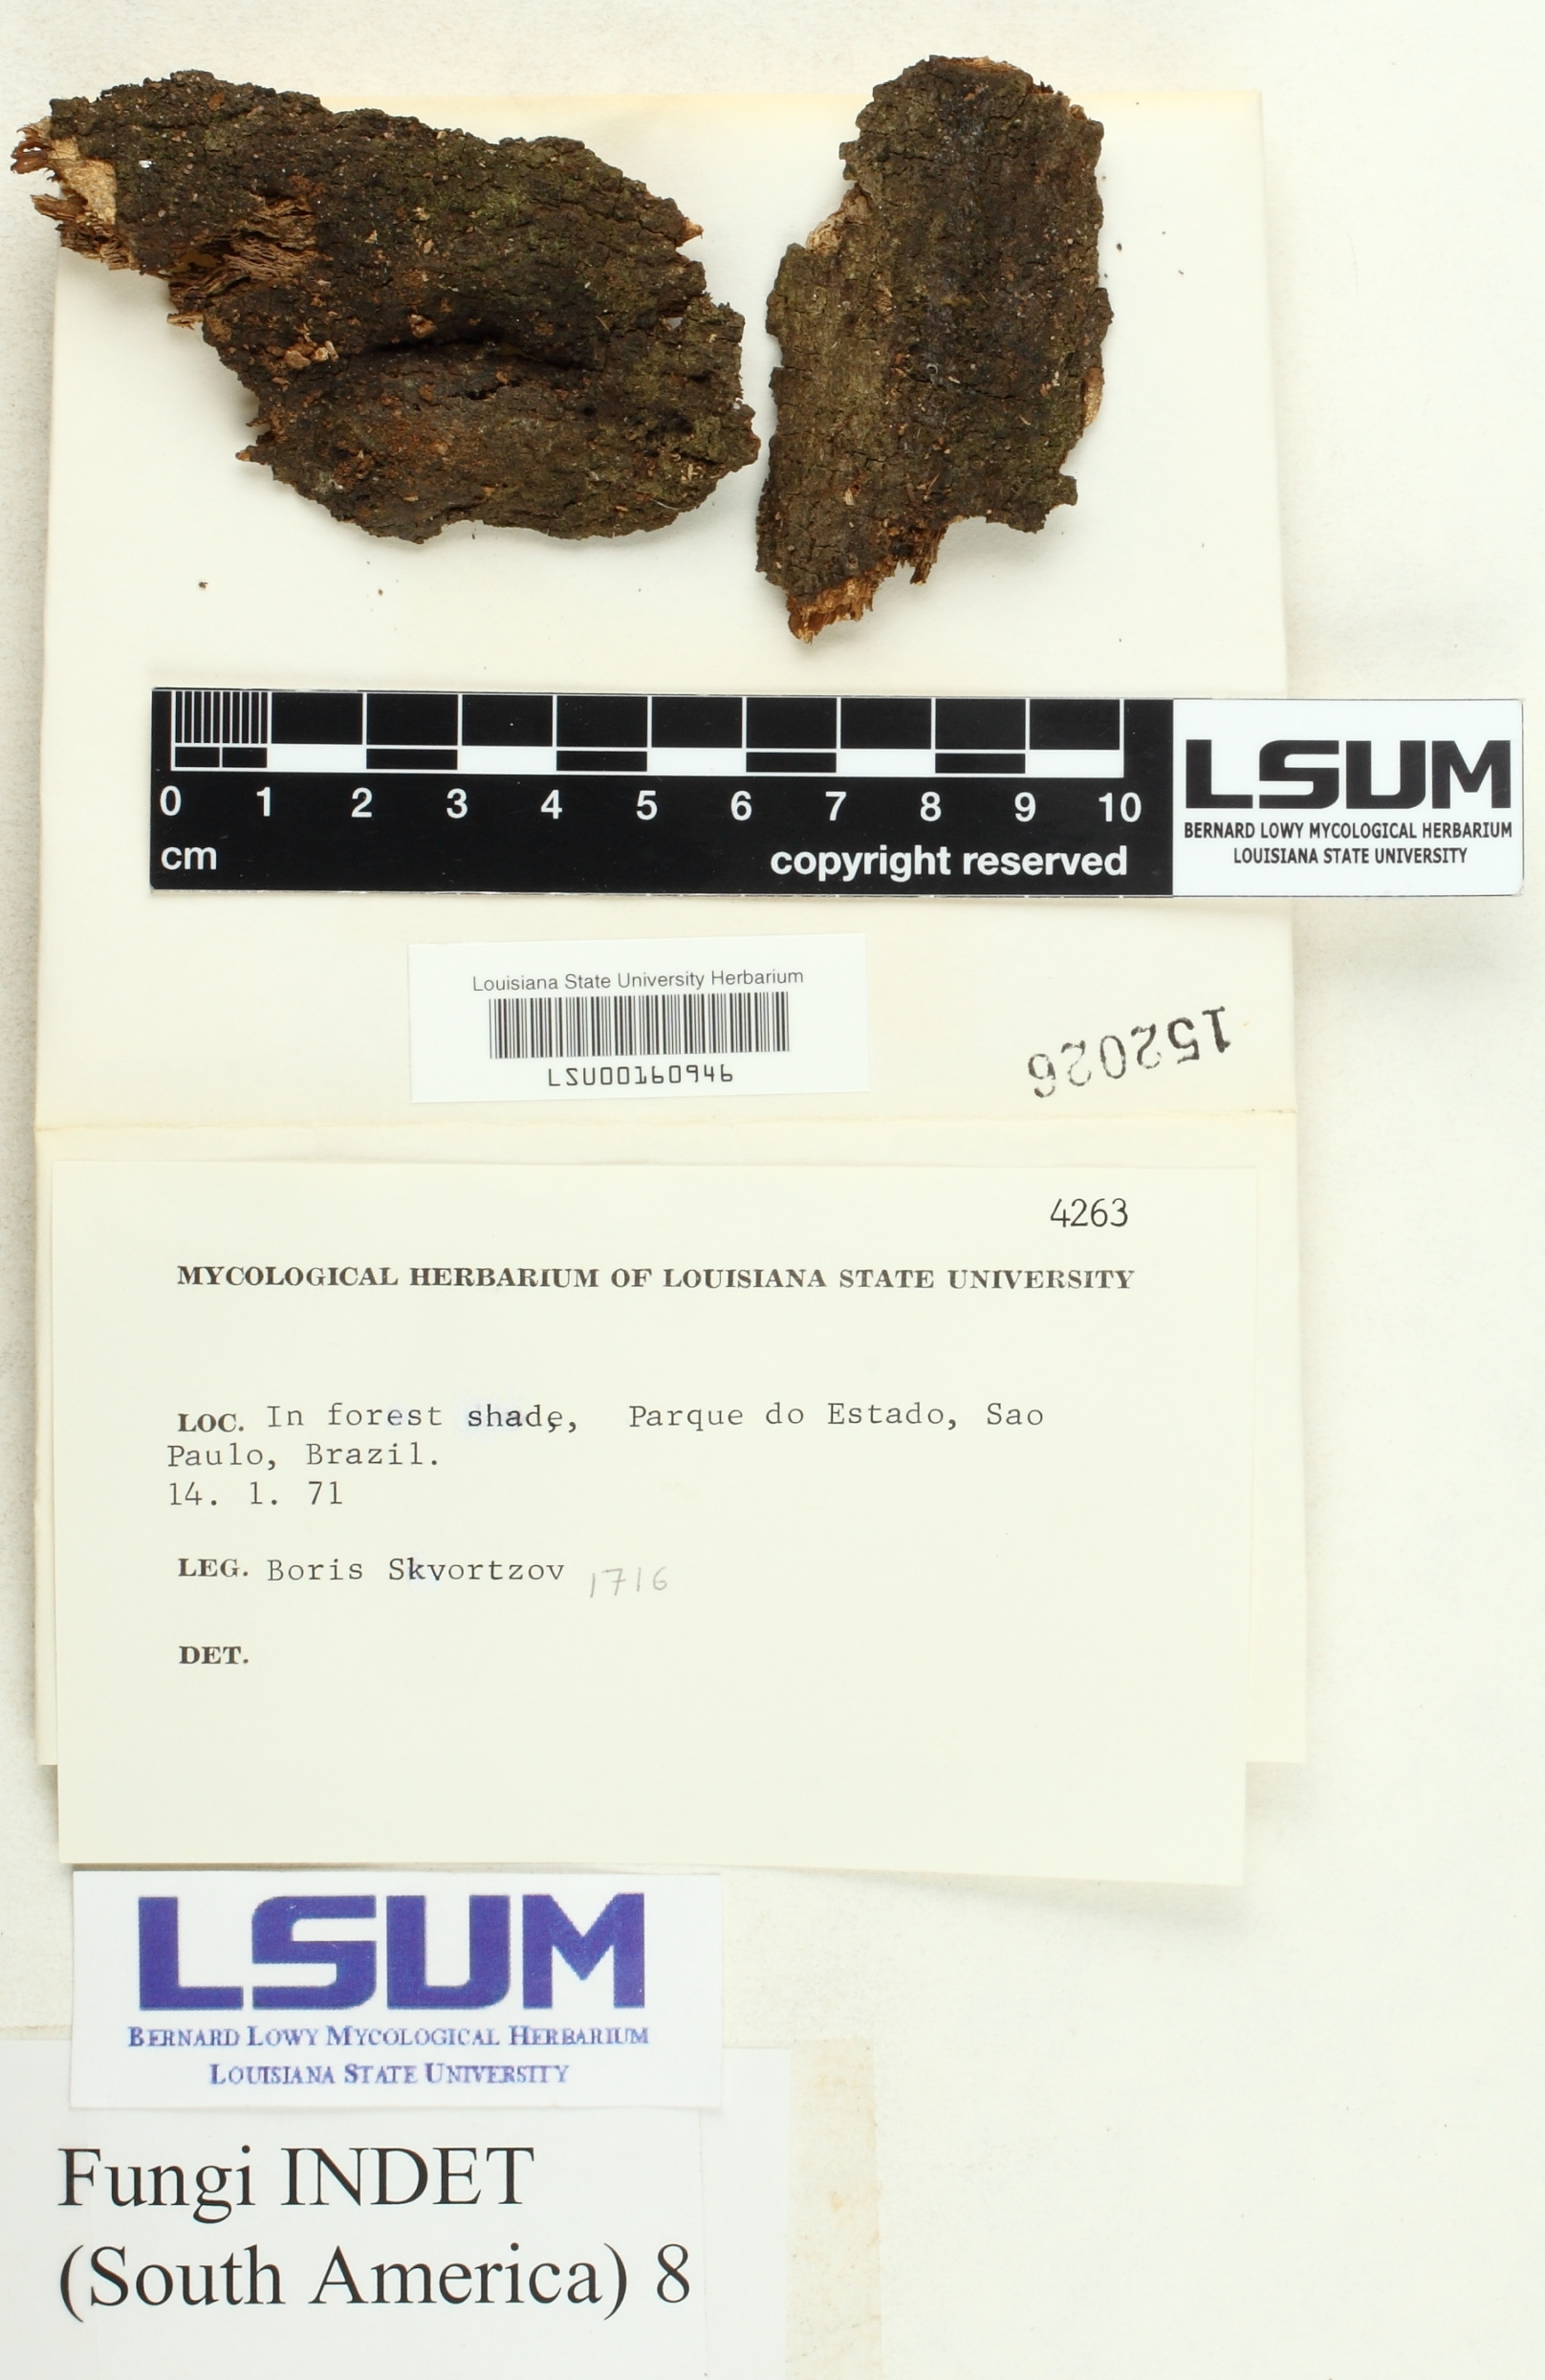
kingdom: Fungi
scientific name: Fungi
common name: Fungi
